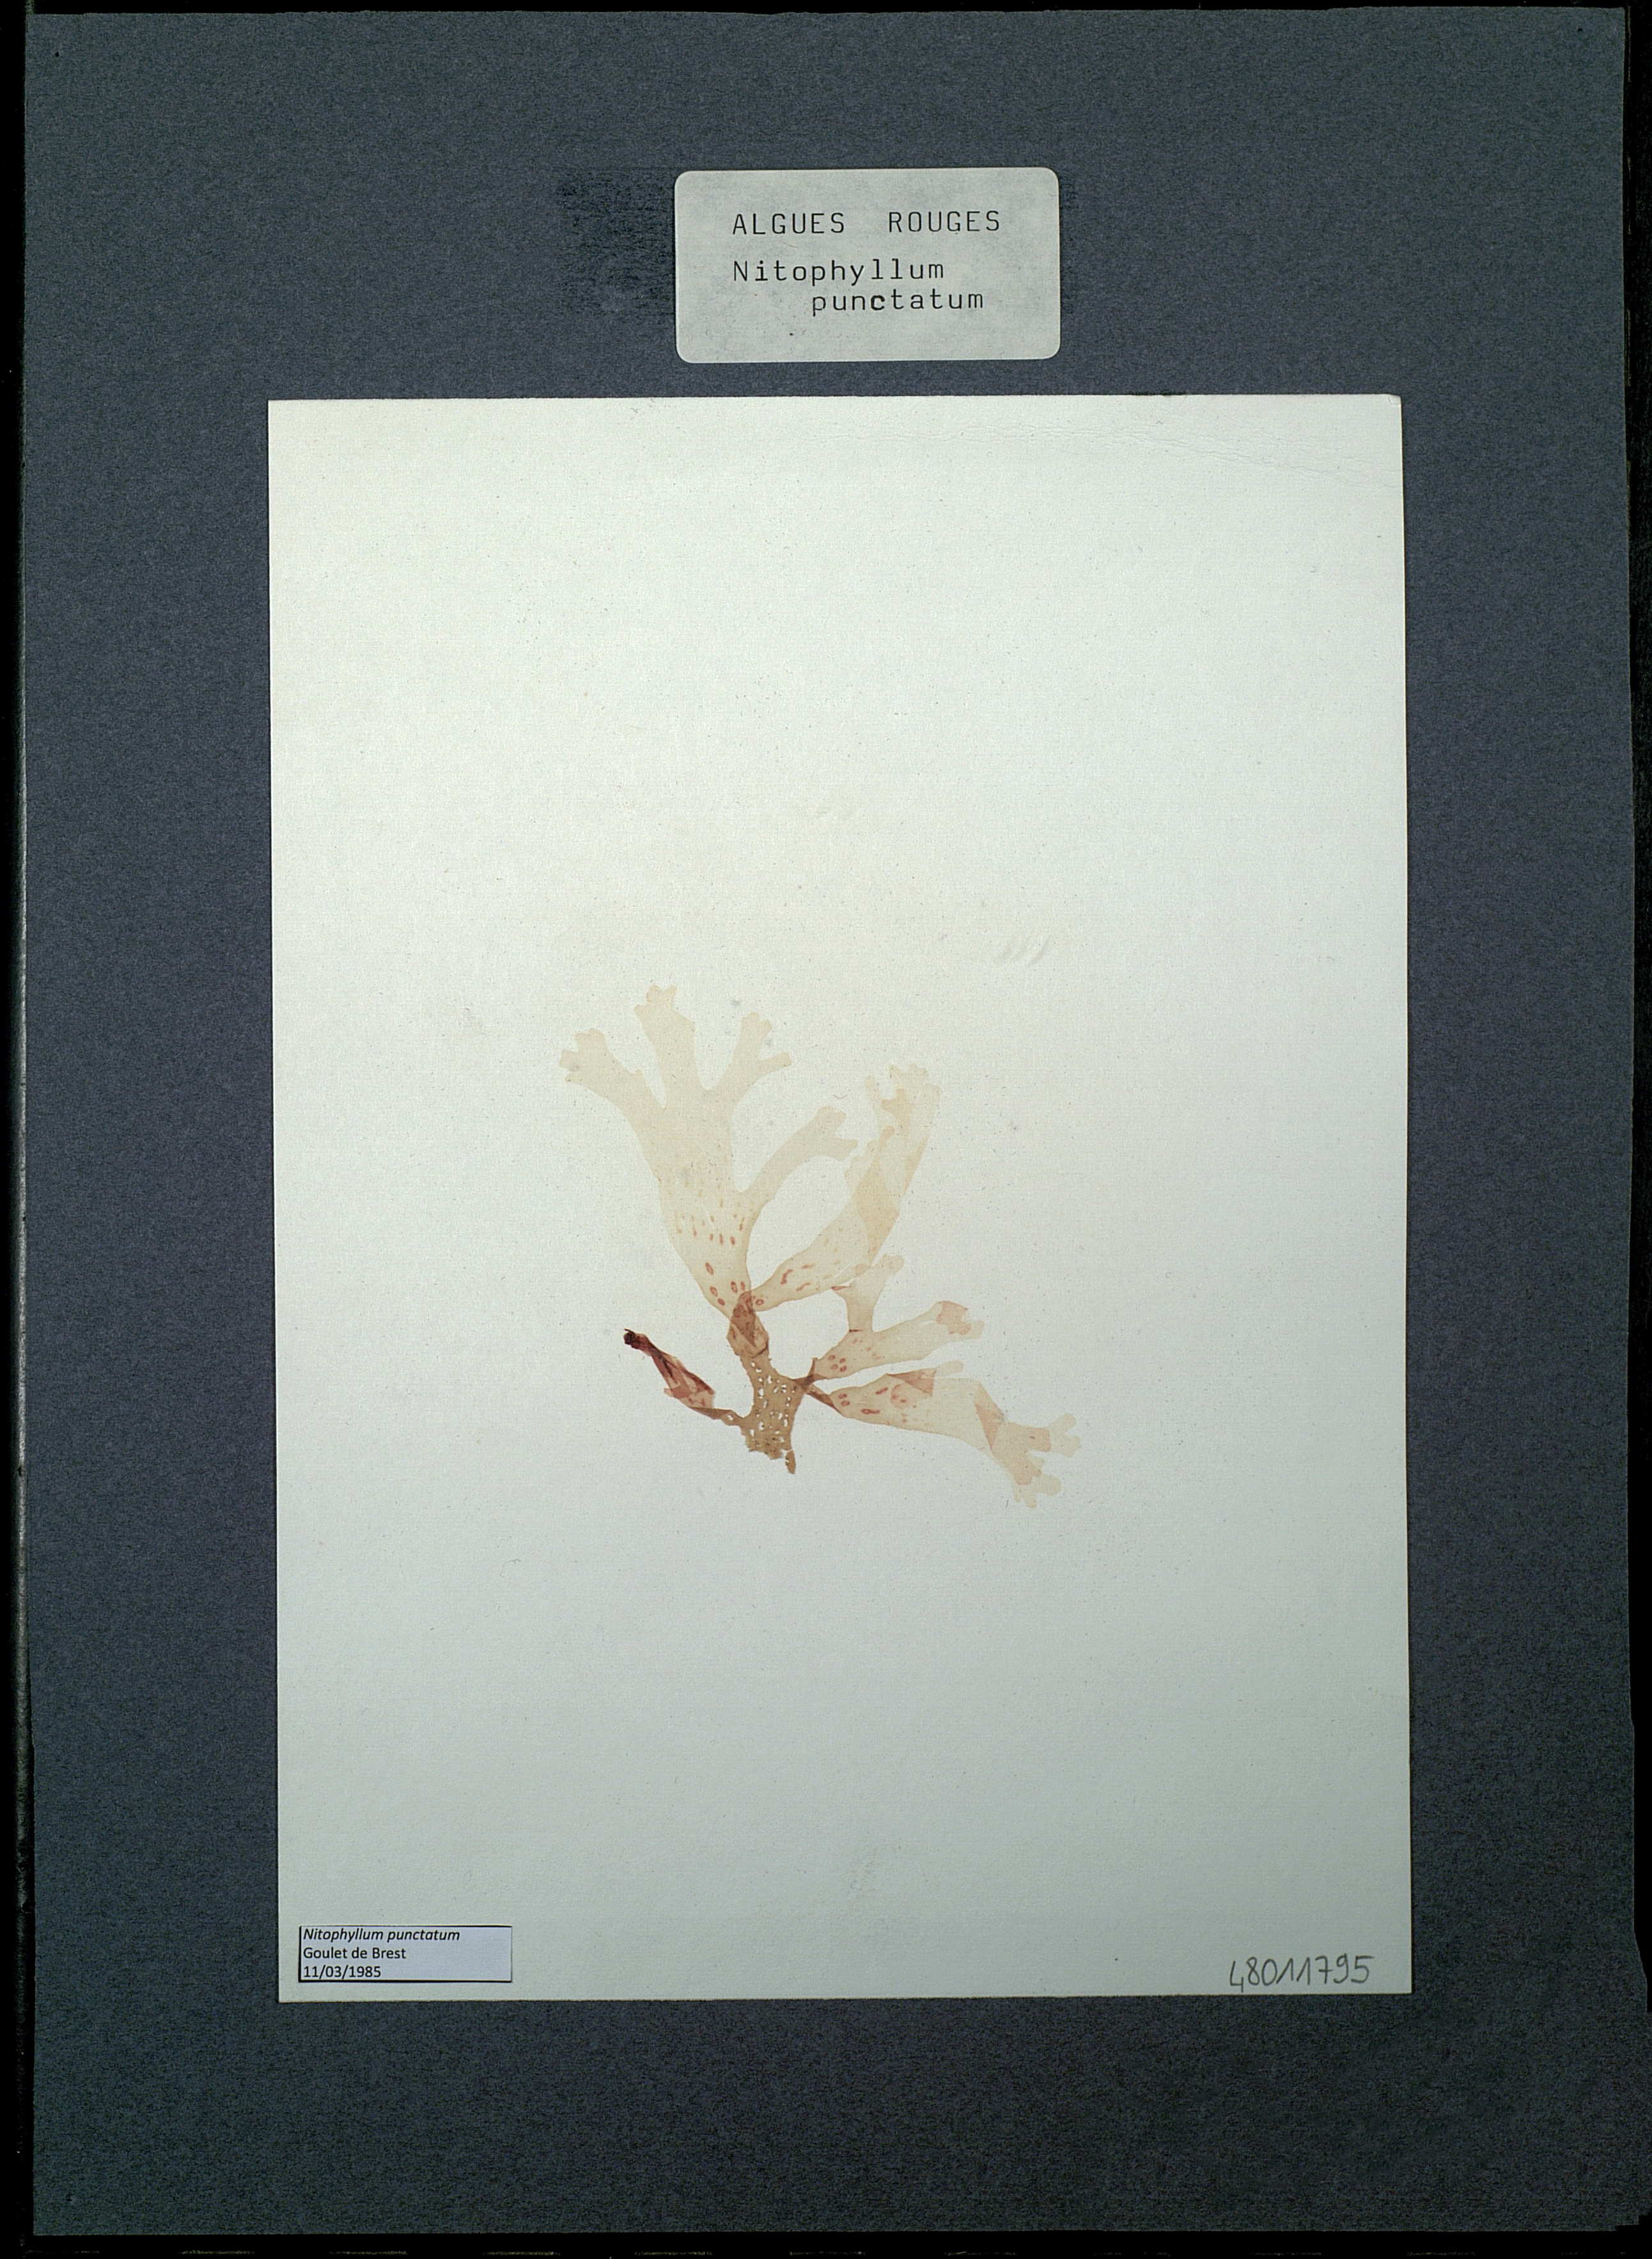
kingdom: Plantae
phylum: Rhodophyta
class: Florideophyceae
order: Ceramiales
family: Delesseriaceae
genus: Nitophyllum
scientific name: Nitophyllum punctatum
